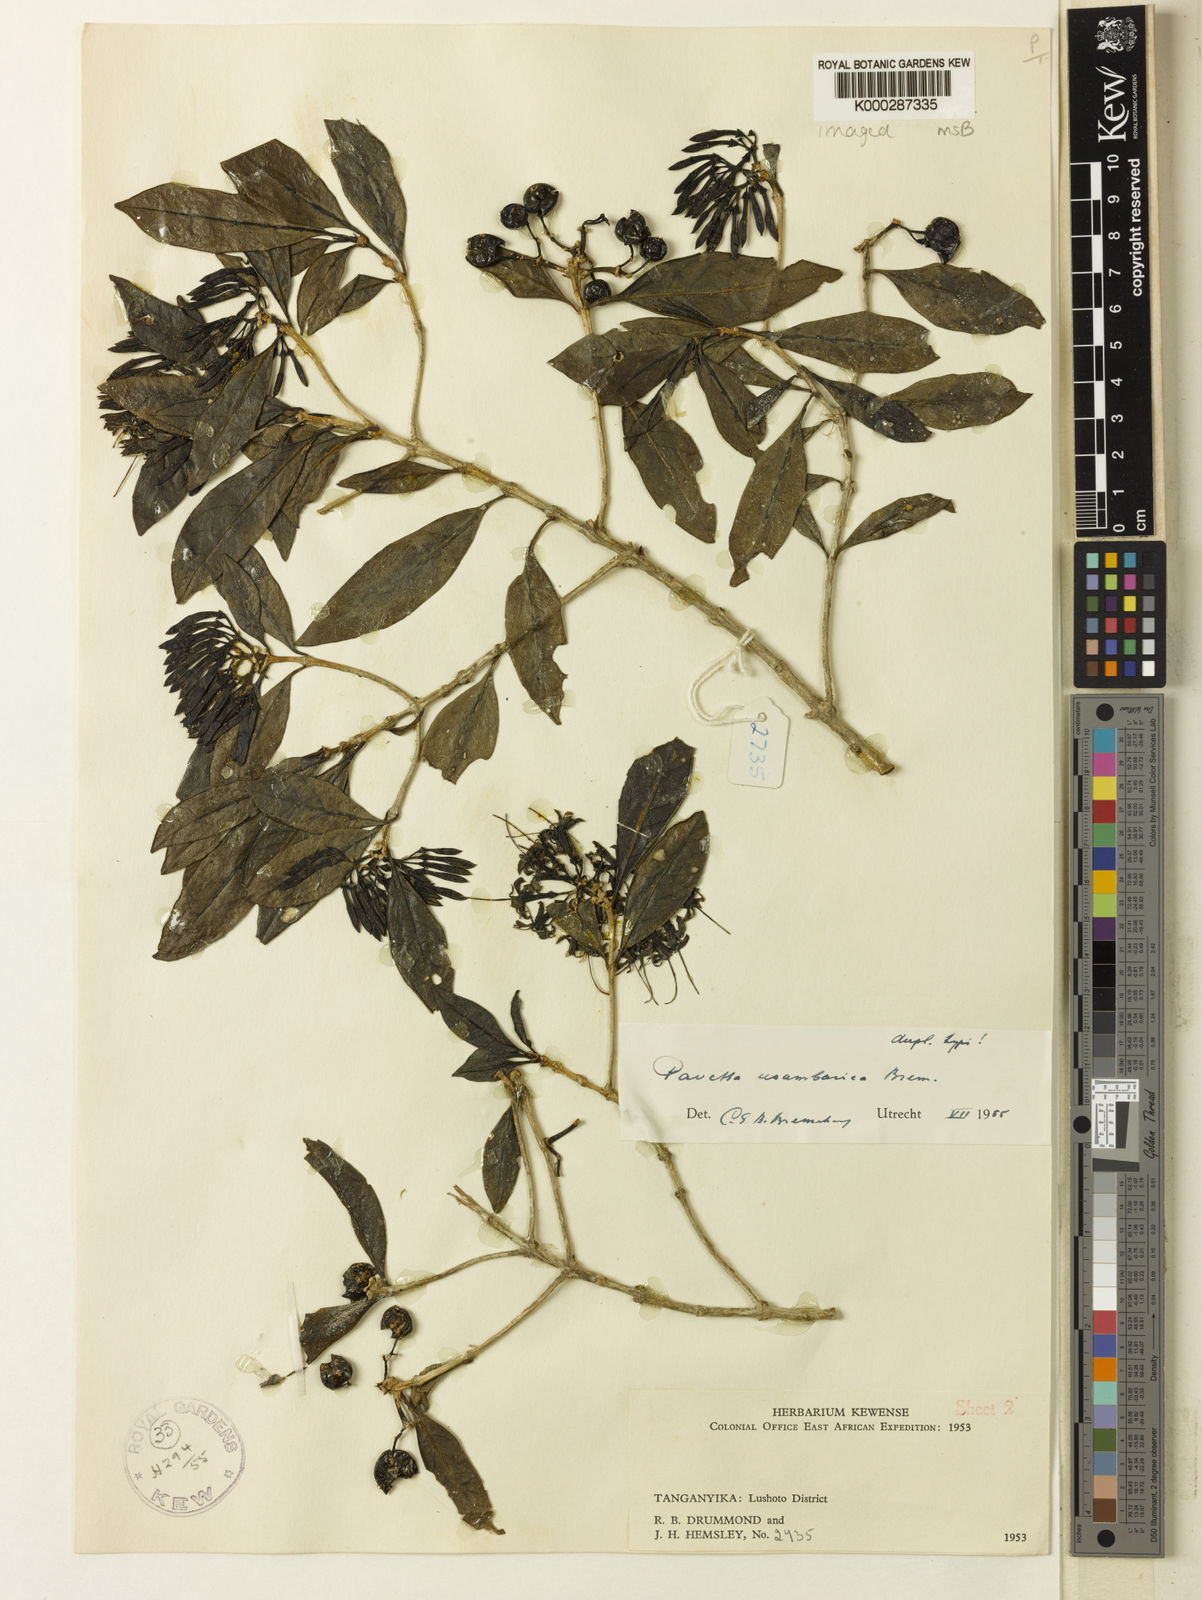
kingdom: Plantae
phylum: Tracheophyta
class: Magnoliopsida
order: Gentianales
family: Rubiaceae
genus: Pavetta
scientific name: Pavetta abyssinica
